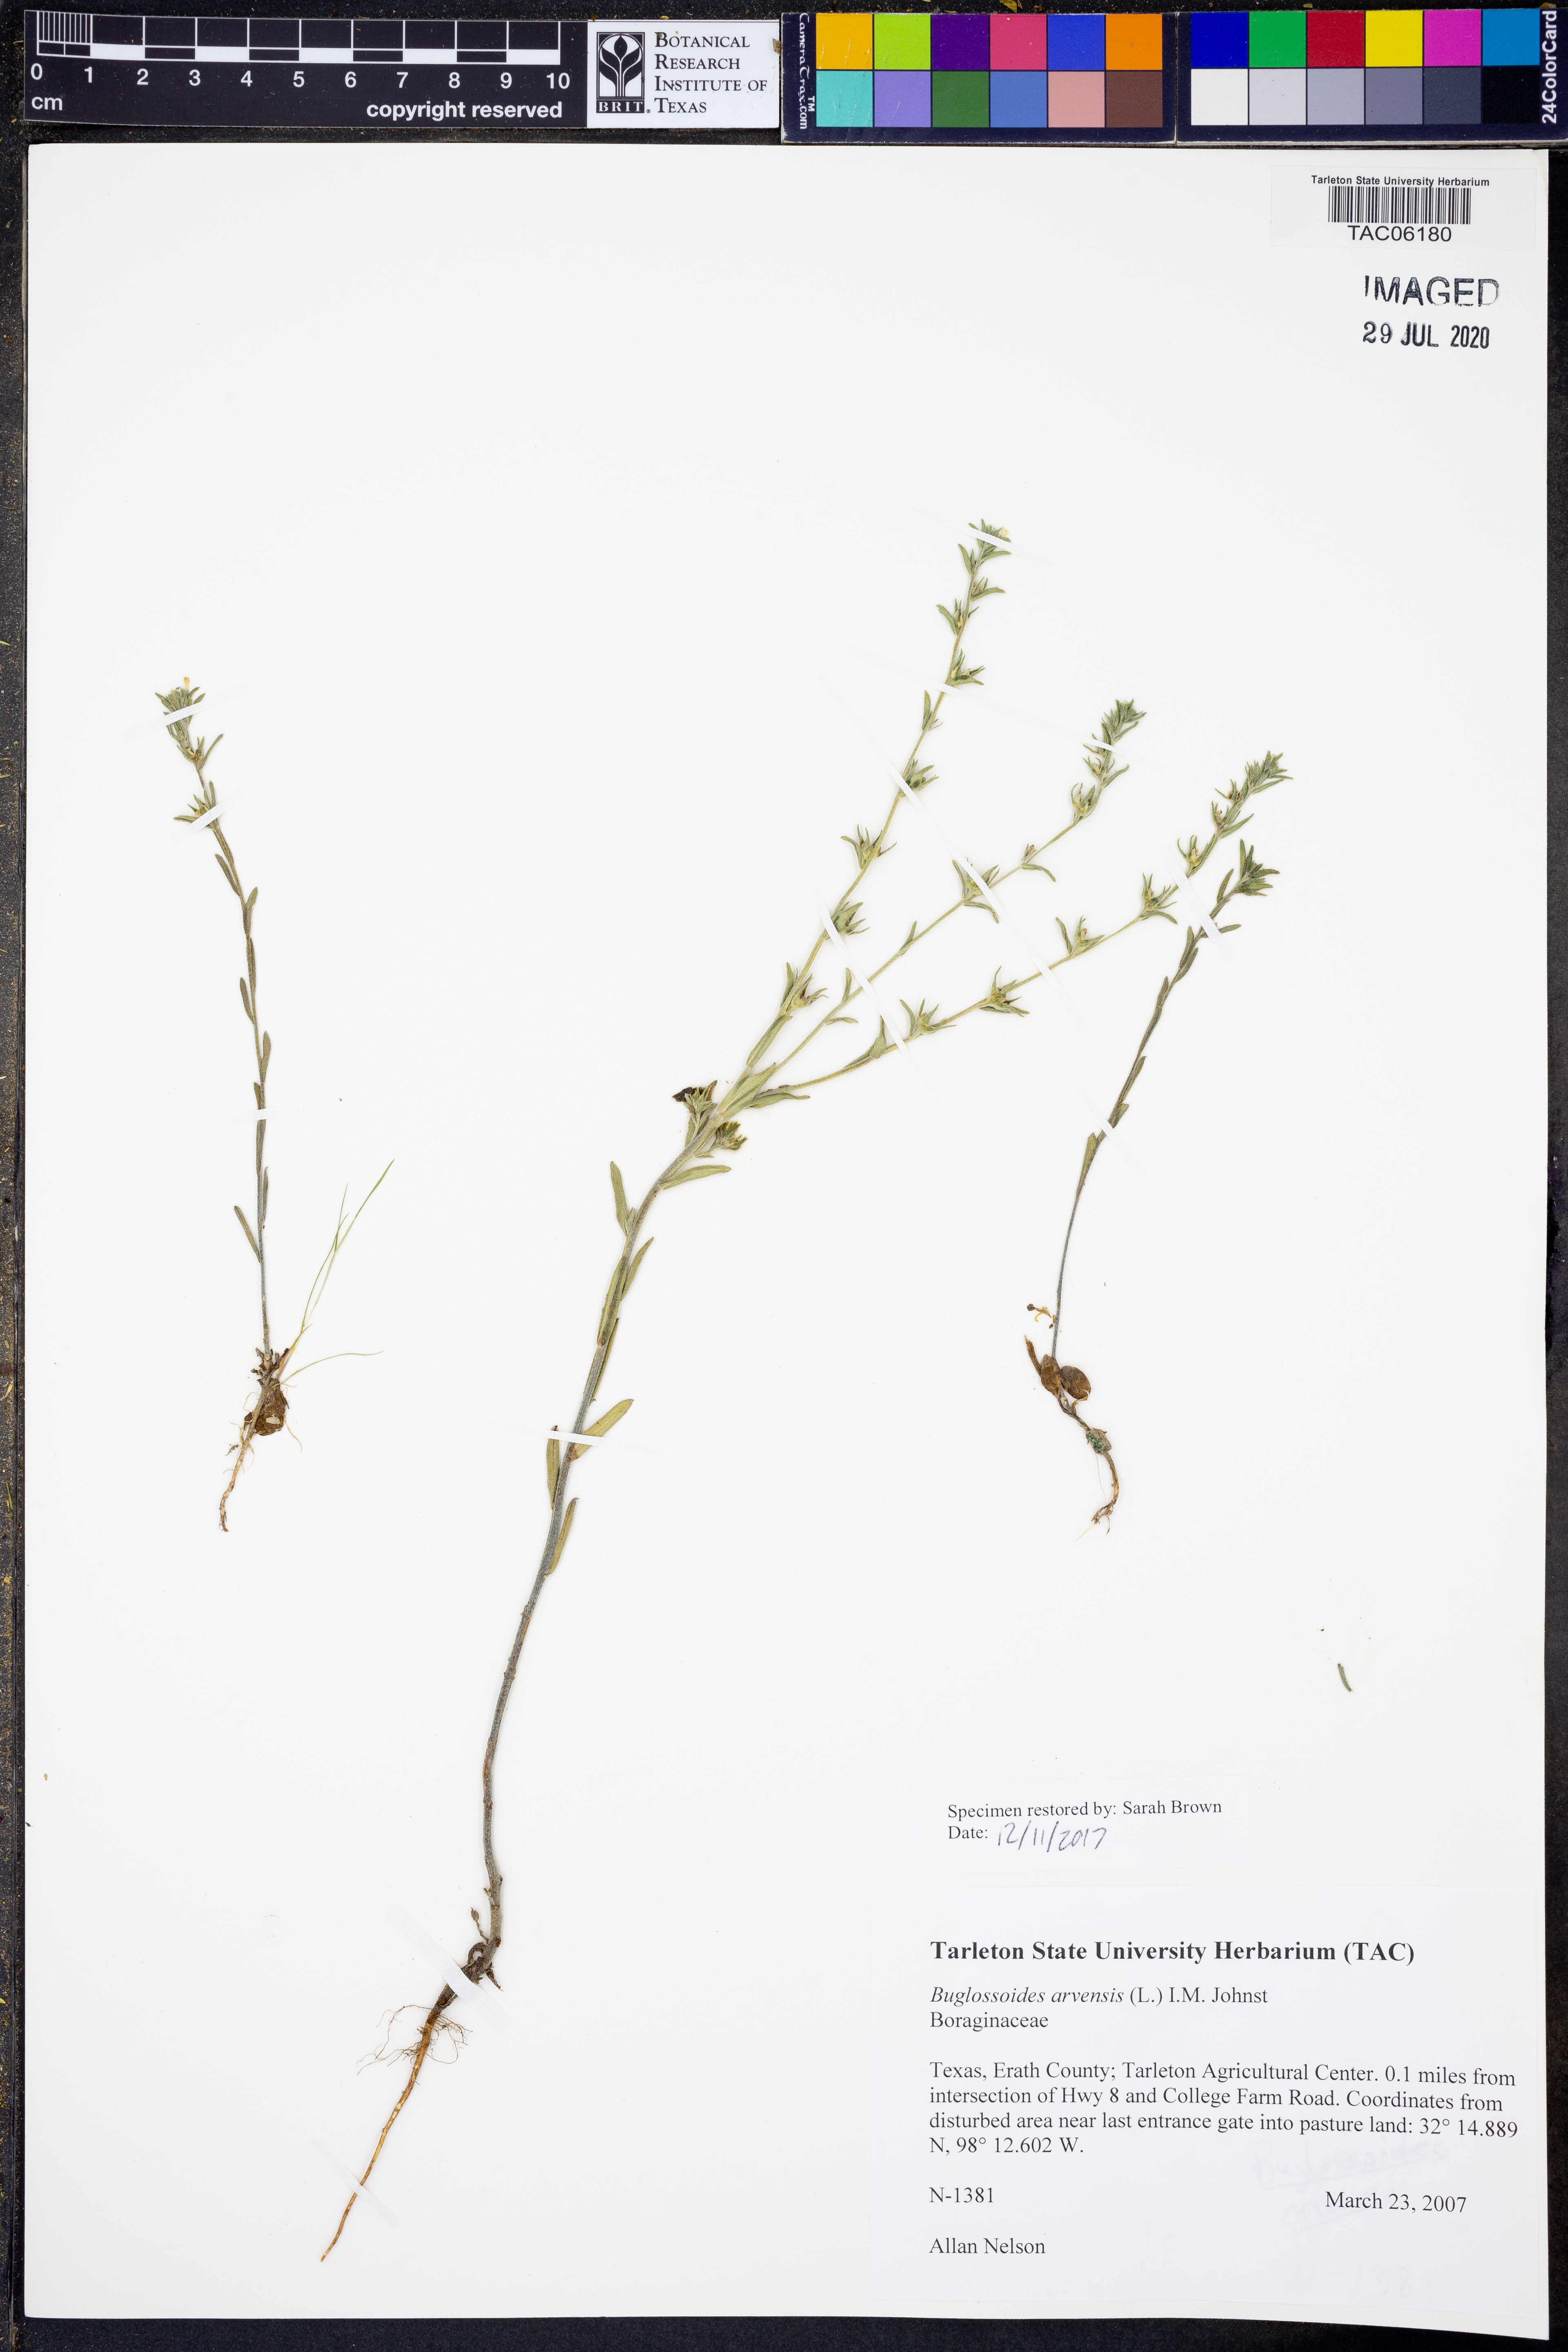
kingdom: Plantae
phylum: Tracheophyta
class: Magnoliopsida
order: Boraginales
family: Boraginaceae
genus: Buglossoides
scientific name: Buglossoides arvensis
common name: Corn gromwell
